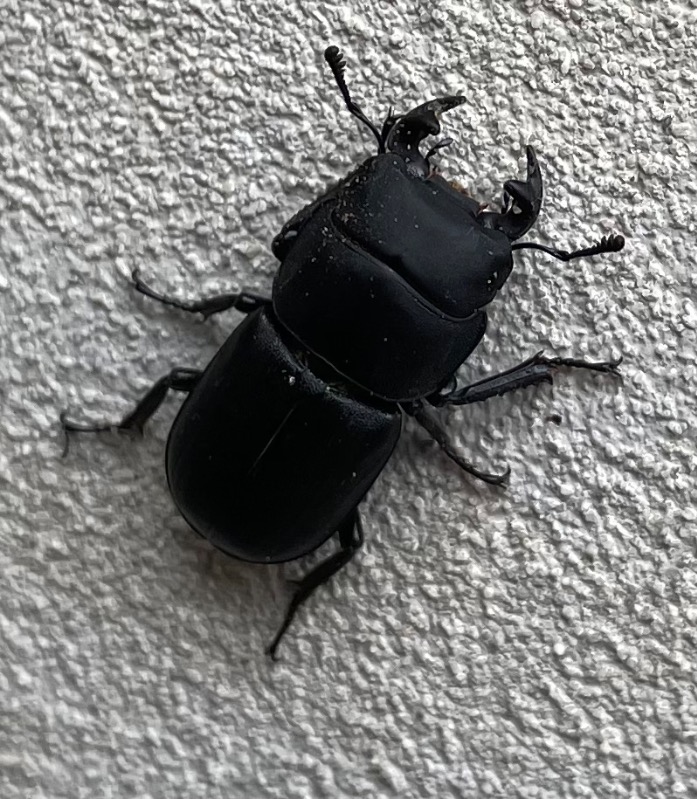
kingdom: Animalia
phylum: Arthropoda
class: Insecta
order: Coleoptera
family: Lucanidae
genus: Dorcus
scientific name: Dorcus parallelipipedus
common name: Bøghjort
